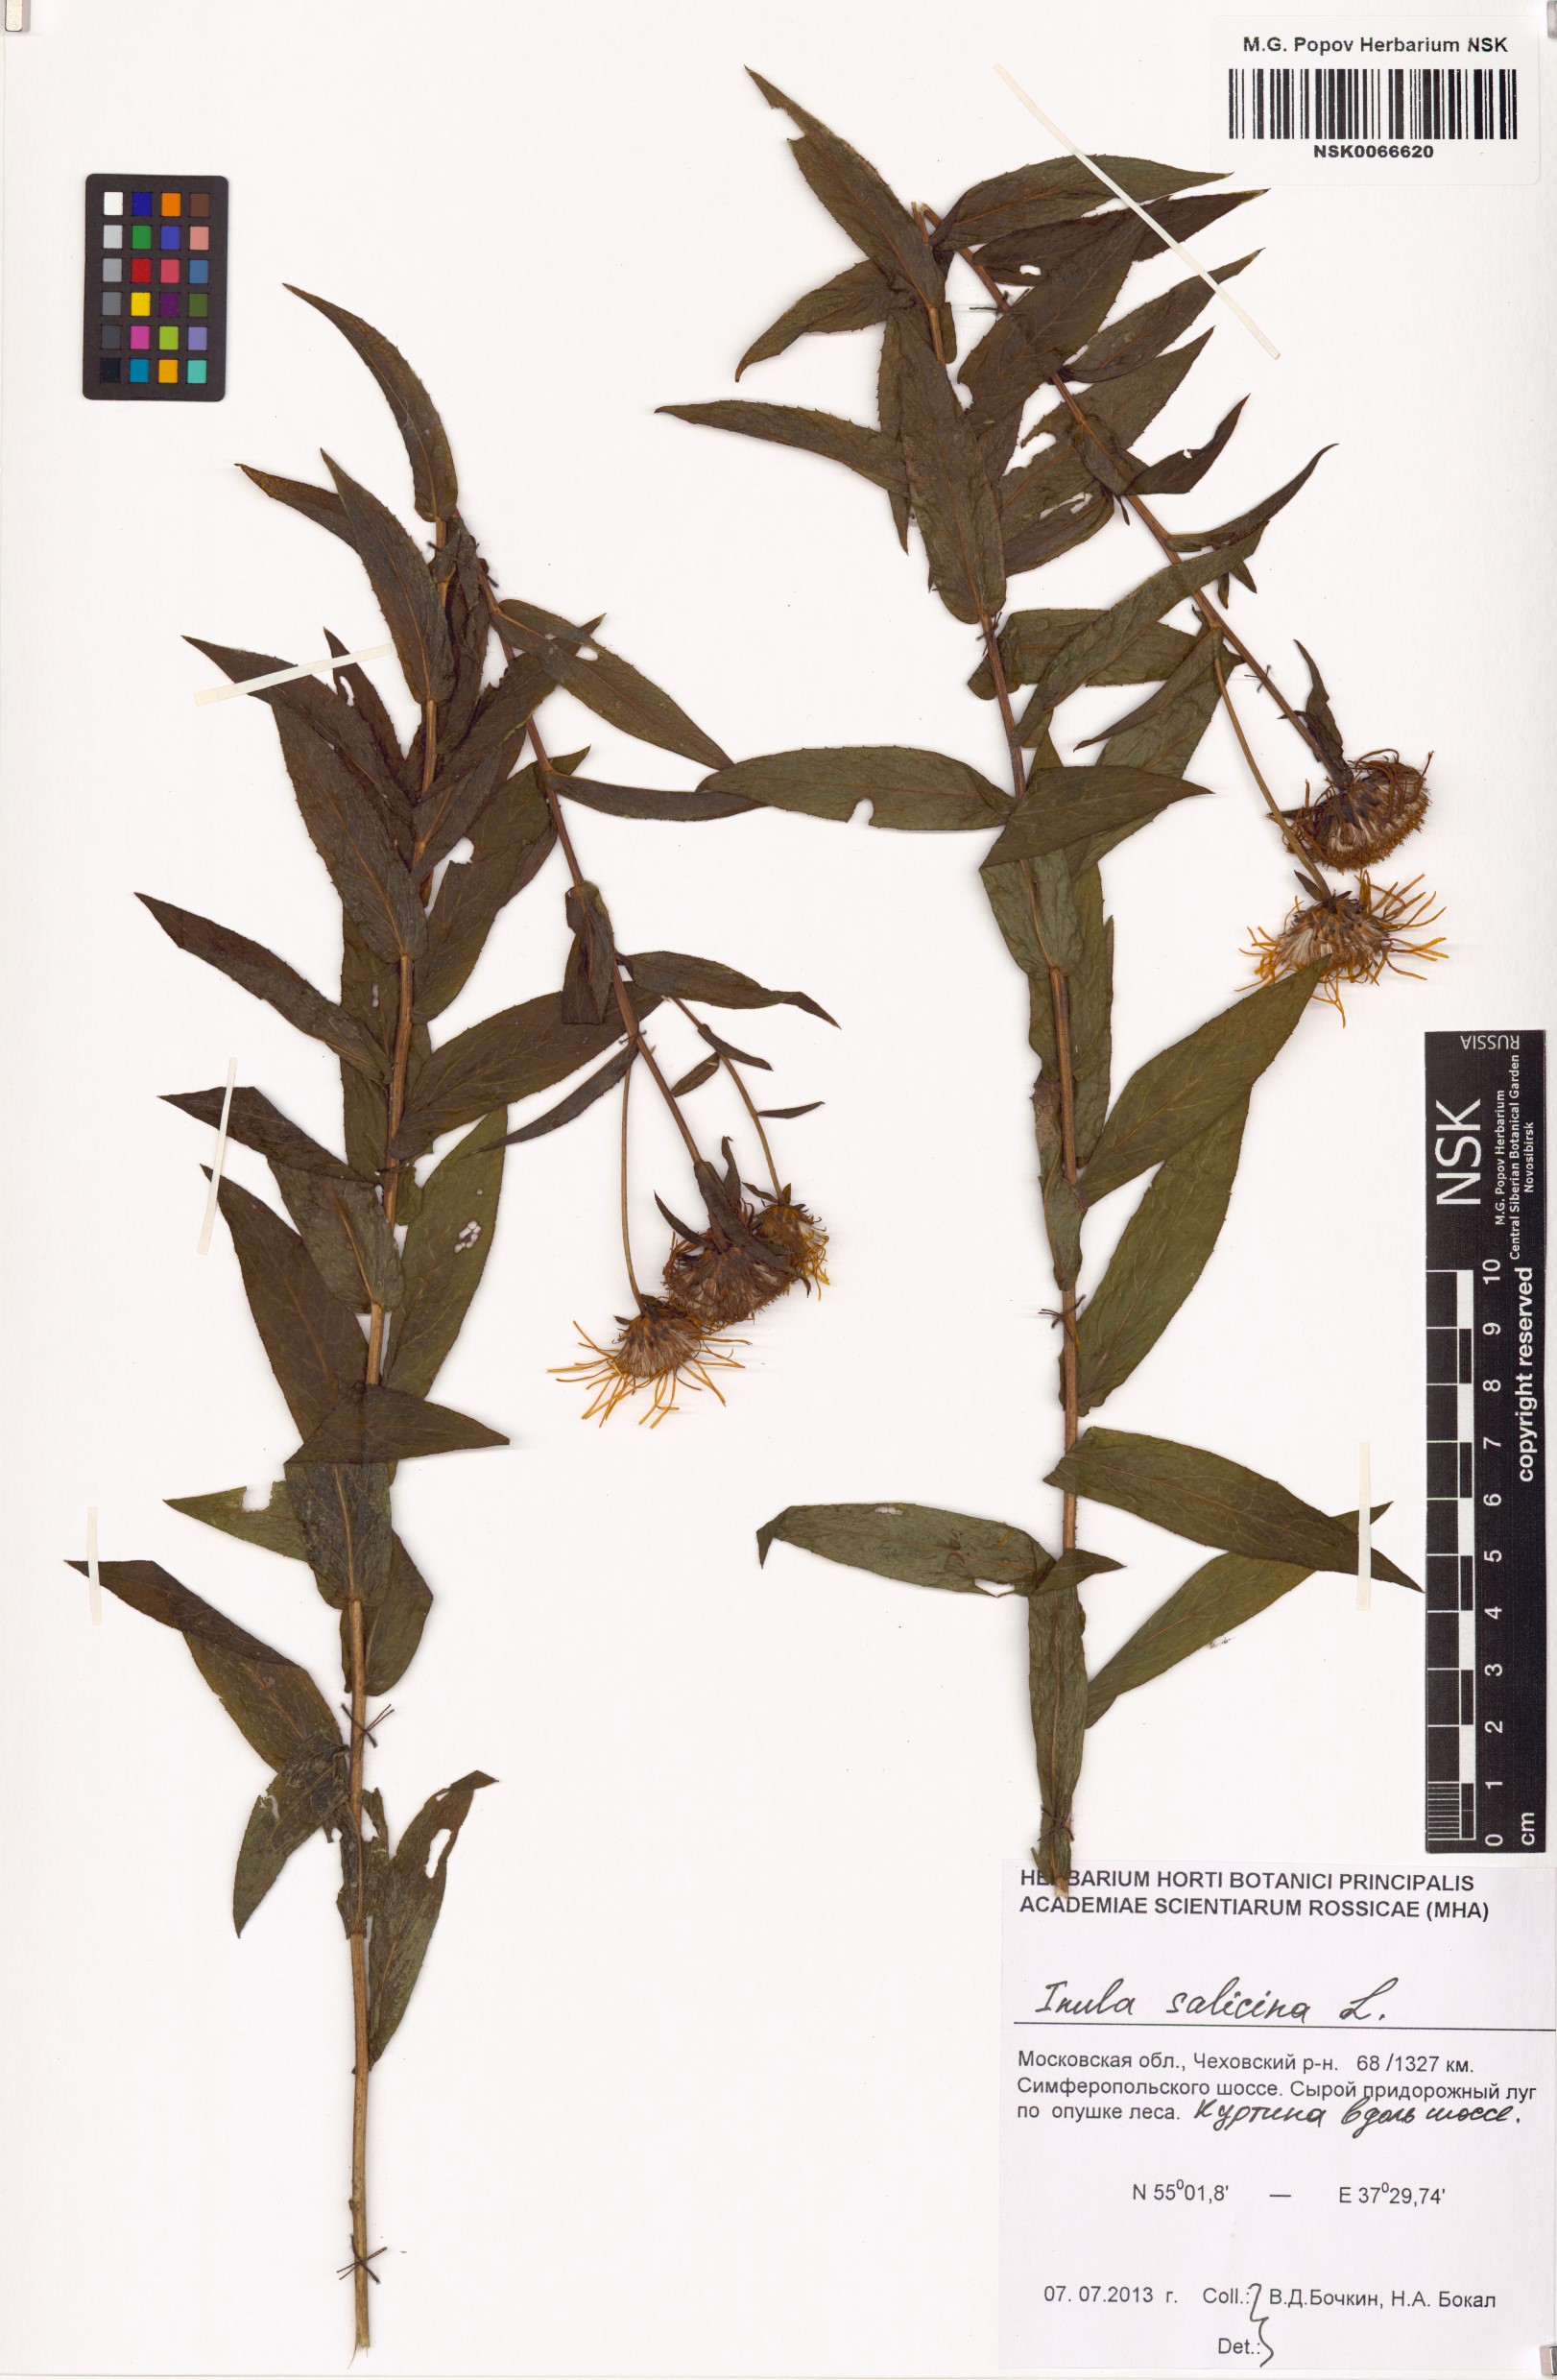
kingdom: Plantae
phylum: Tracheophyta
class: Magnoliopsida
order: Asterales
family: Asteraceae
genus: Pentanema
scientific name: Pentanema salicinum
